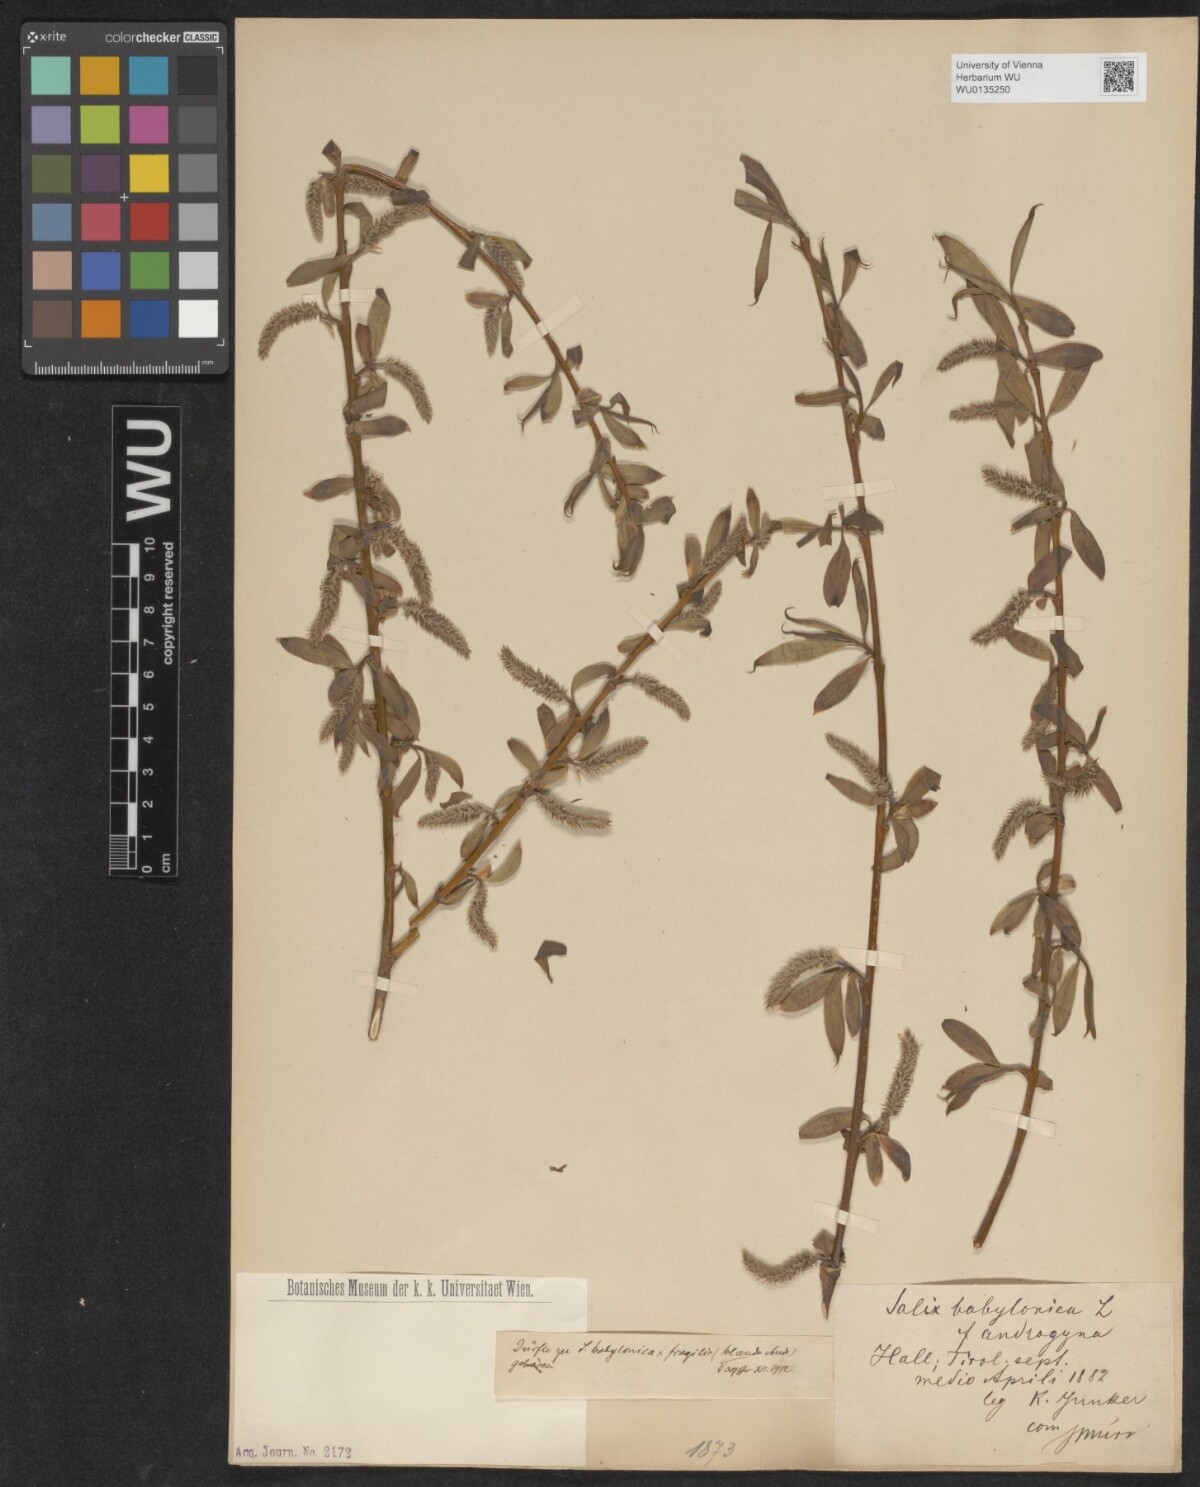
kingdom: Plantae
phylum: Tracheophyta
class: Magnoliopsida
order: Malpighiales
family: Salicaceae
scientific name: Salicaceae
